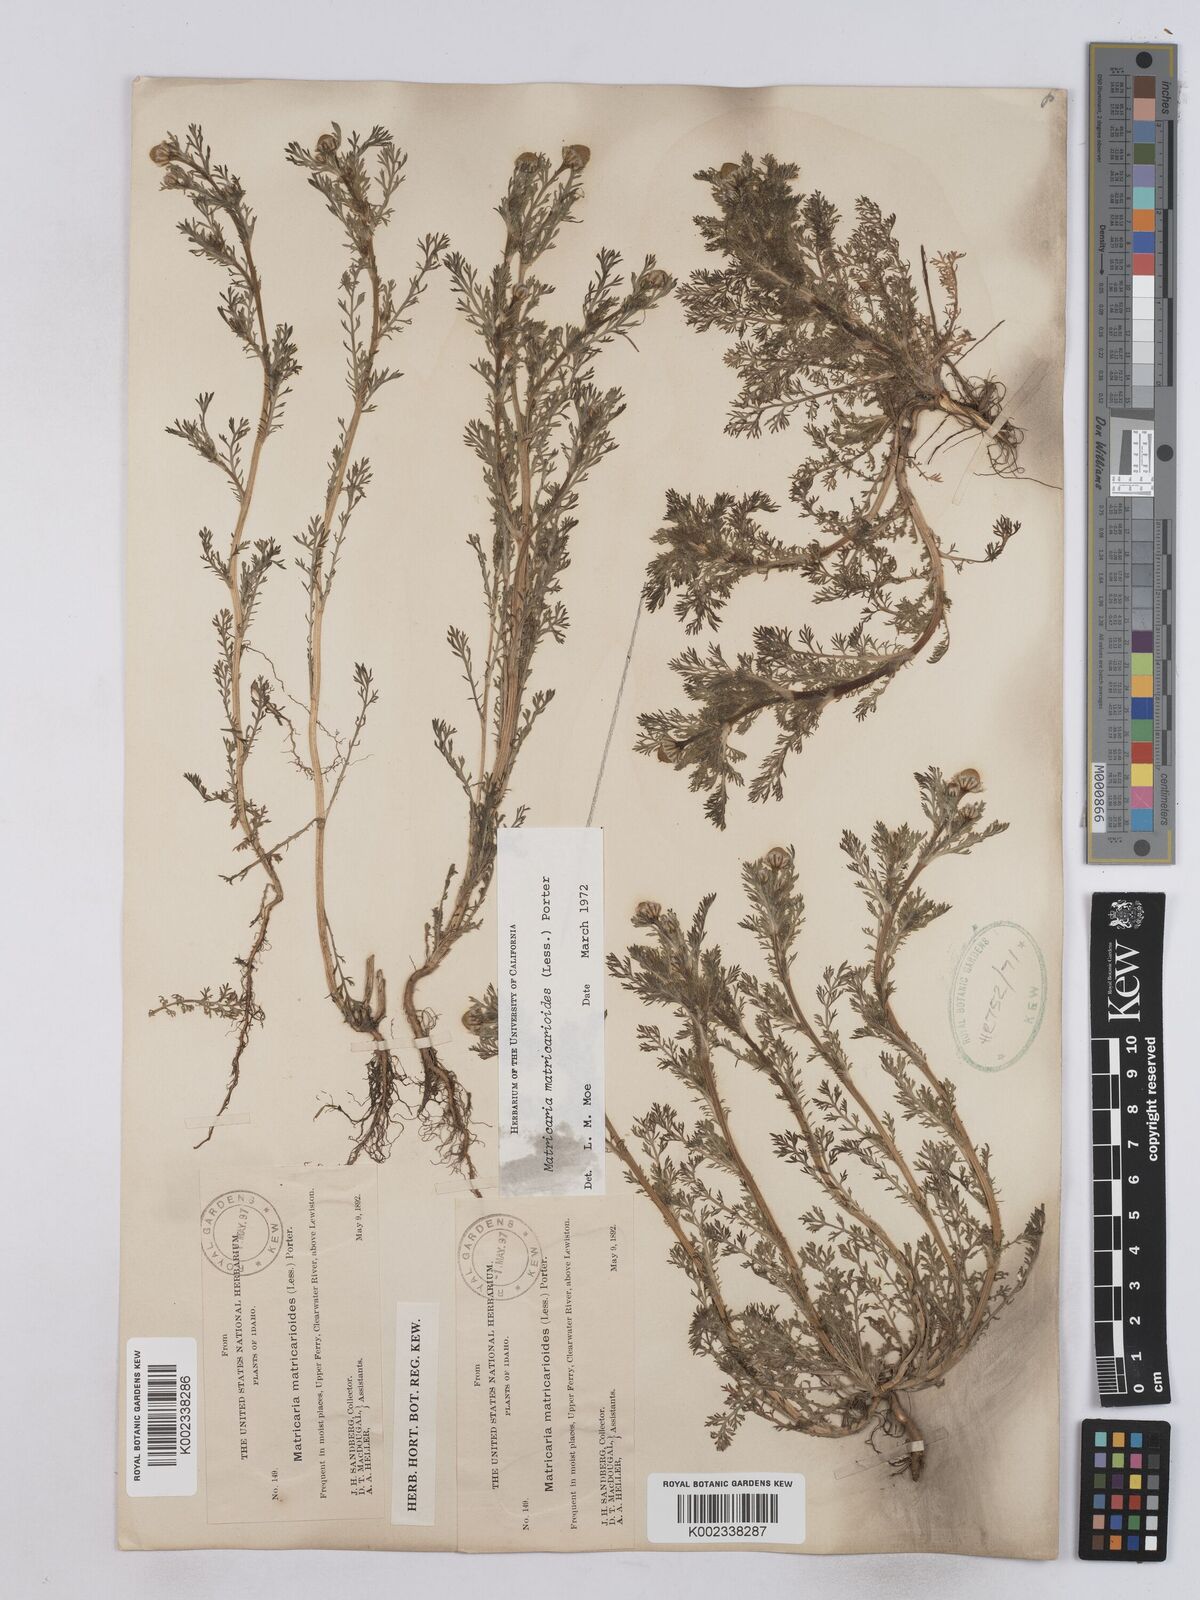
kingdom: Plantae
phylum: Tracheophyta
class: Magnoliopsida
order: Asterales
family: Asteraceae
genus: Matricaria
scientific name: Matricaria discoidea
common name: Disc mayweed
